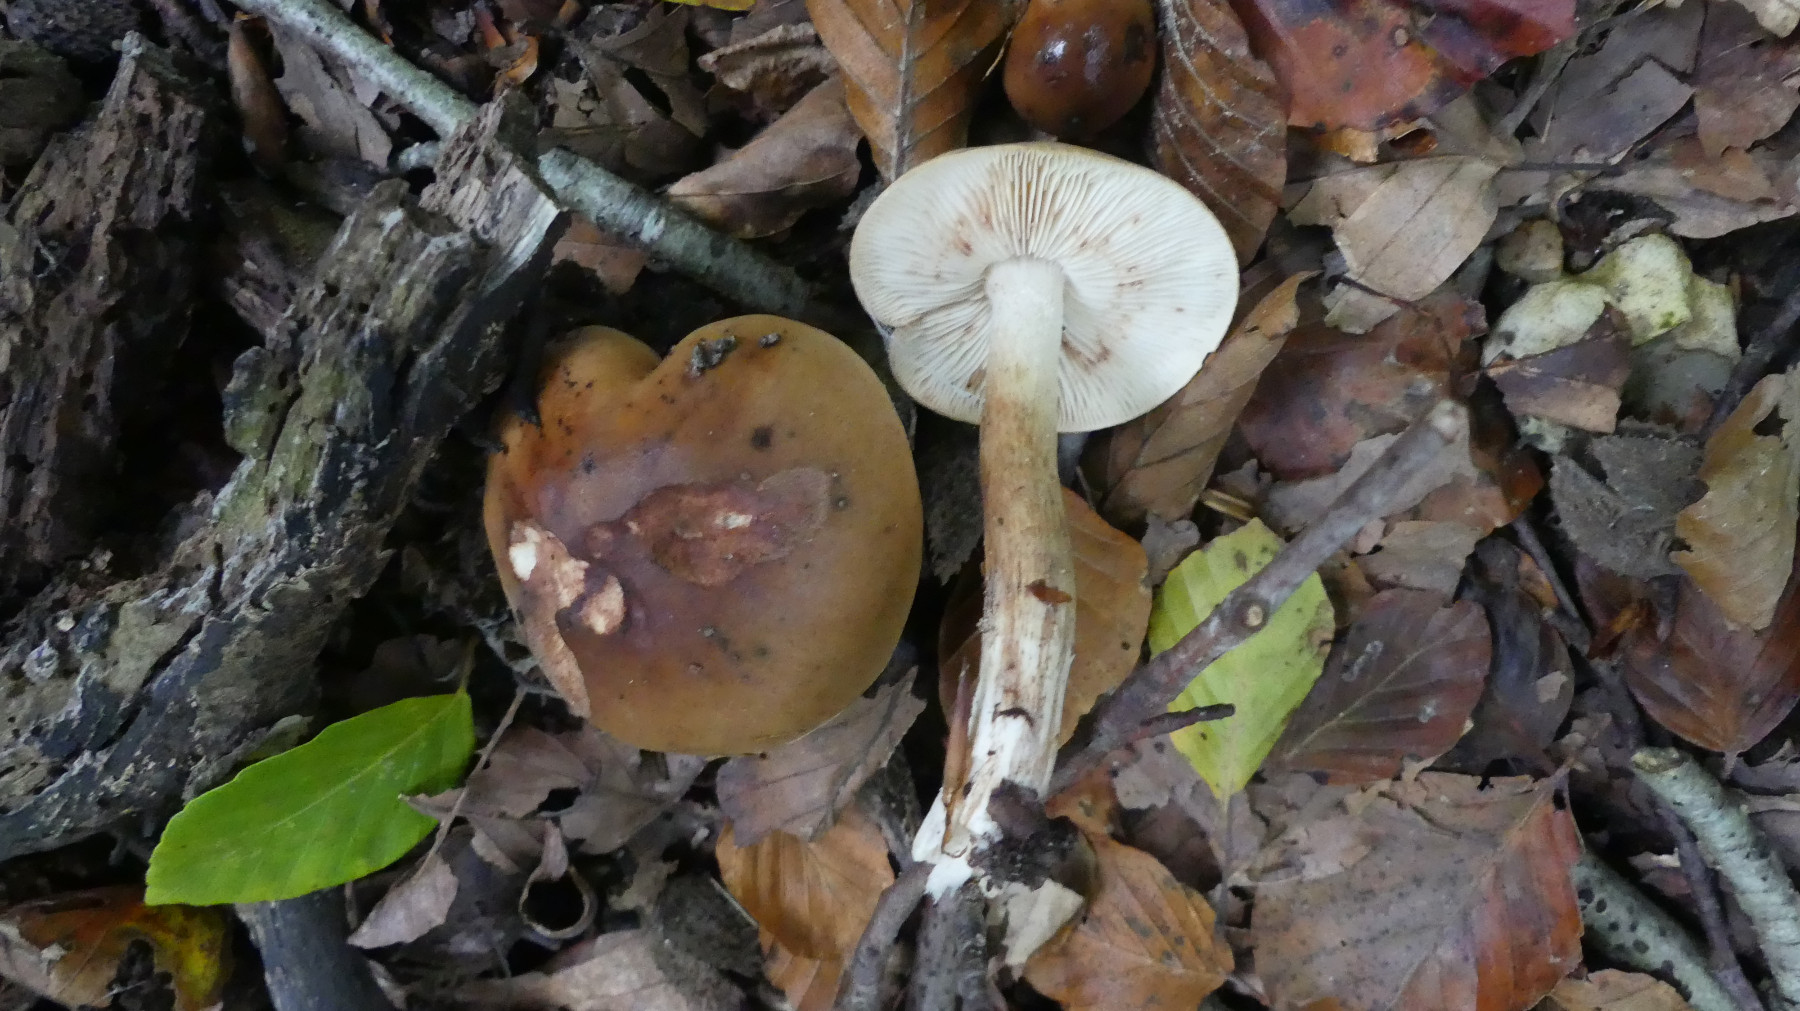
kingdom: Fungi
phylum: Basidiomycota
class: Agaricomycetes
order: Agaricales
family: Tricholomataceae
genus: Tricholoma
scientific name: Tricholoma ustale
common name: sveden ridderhat
